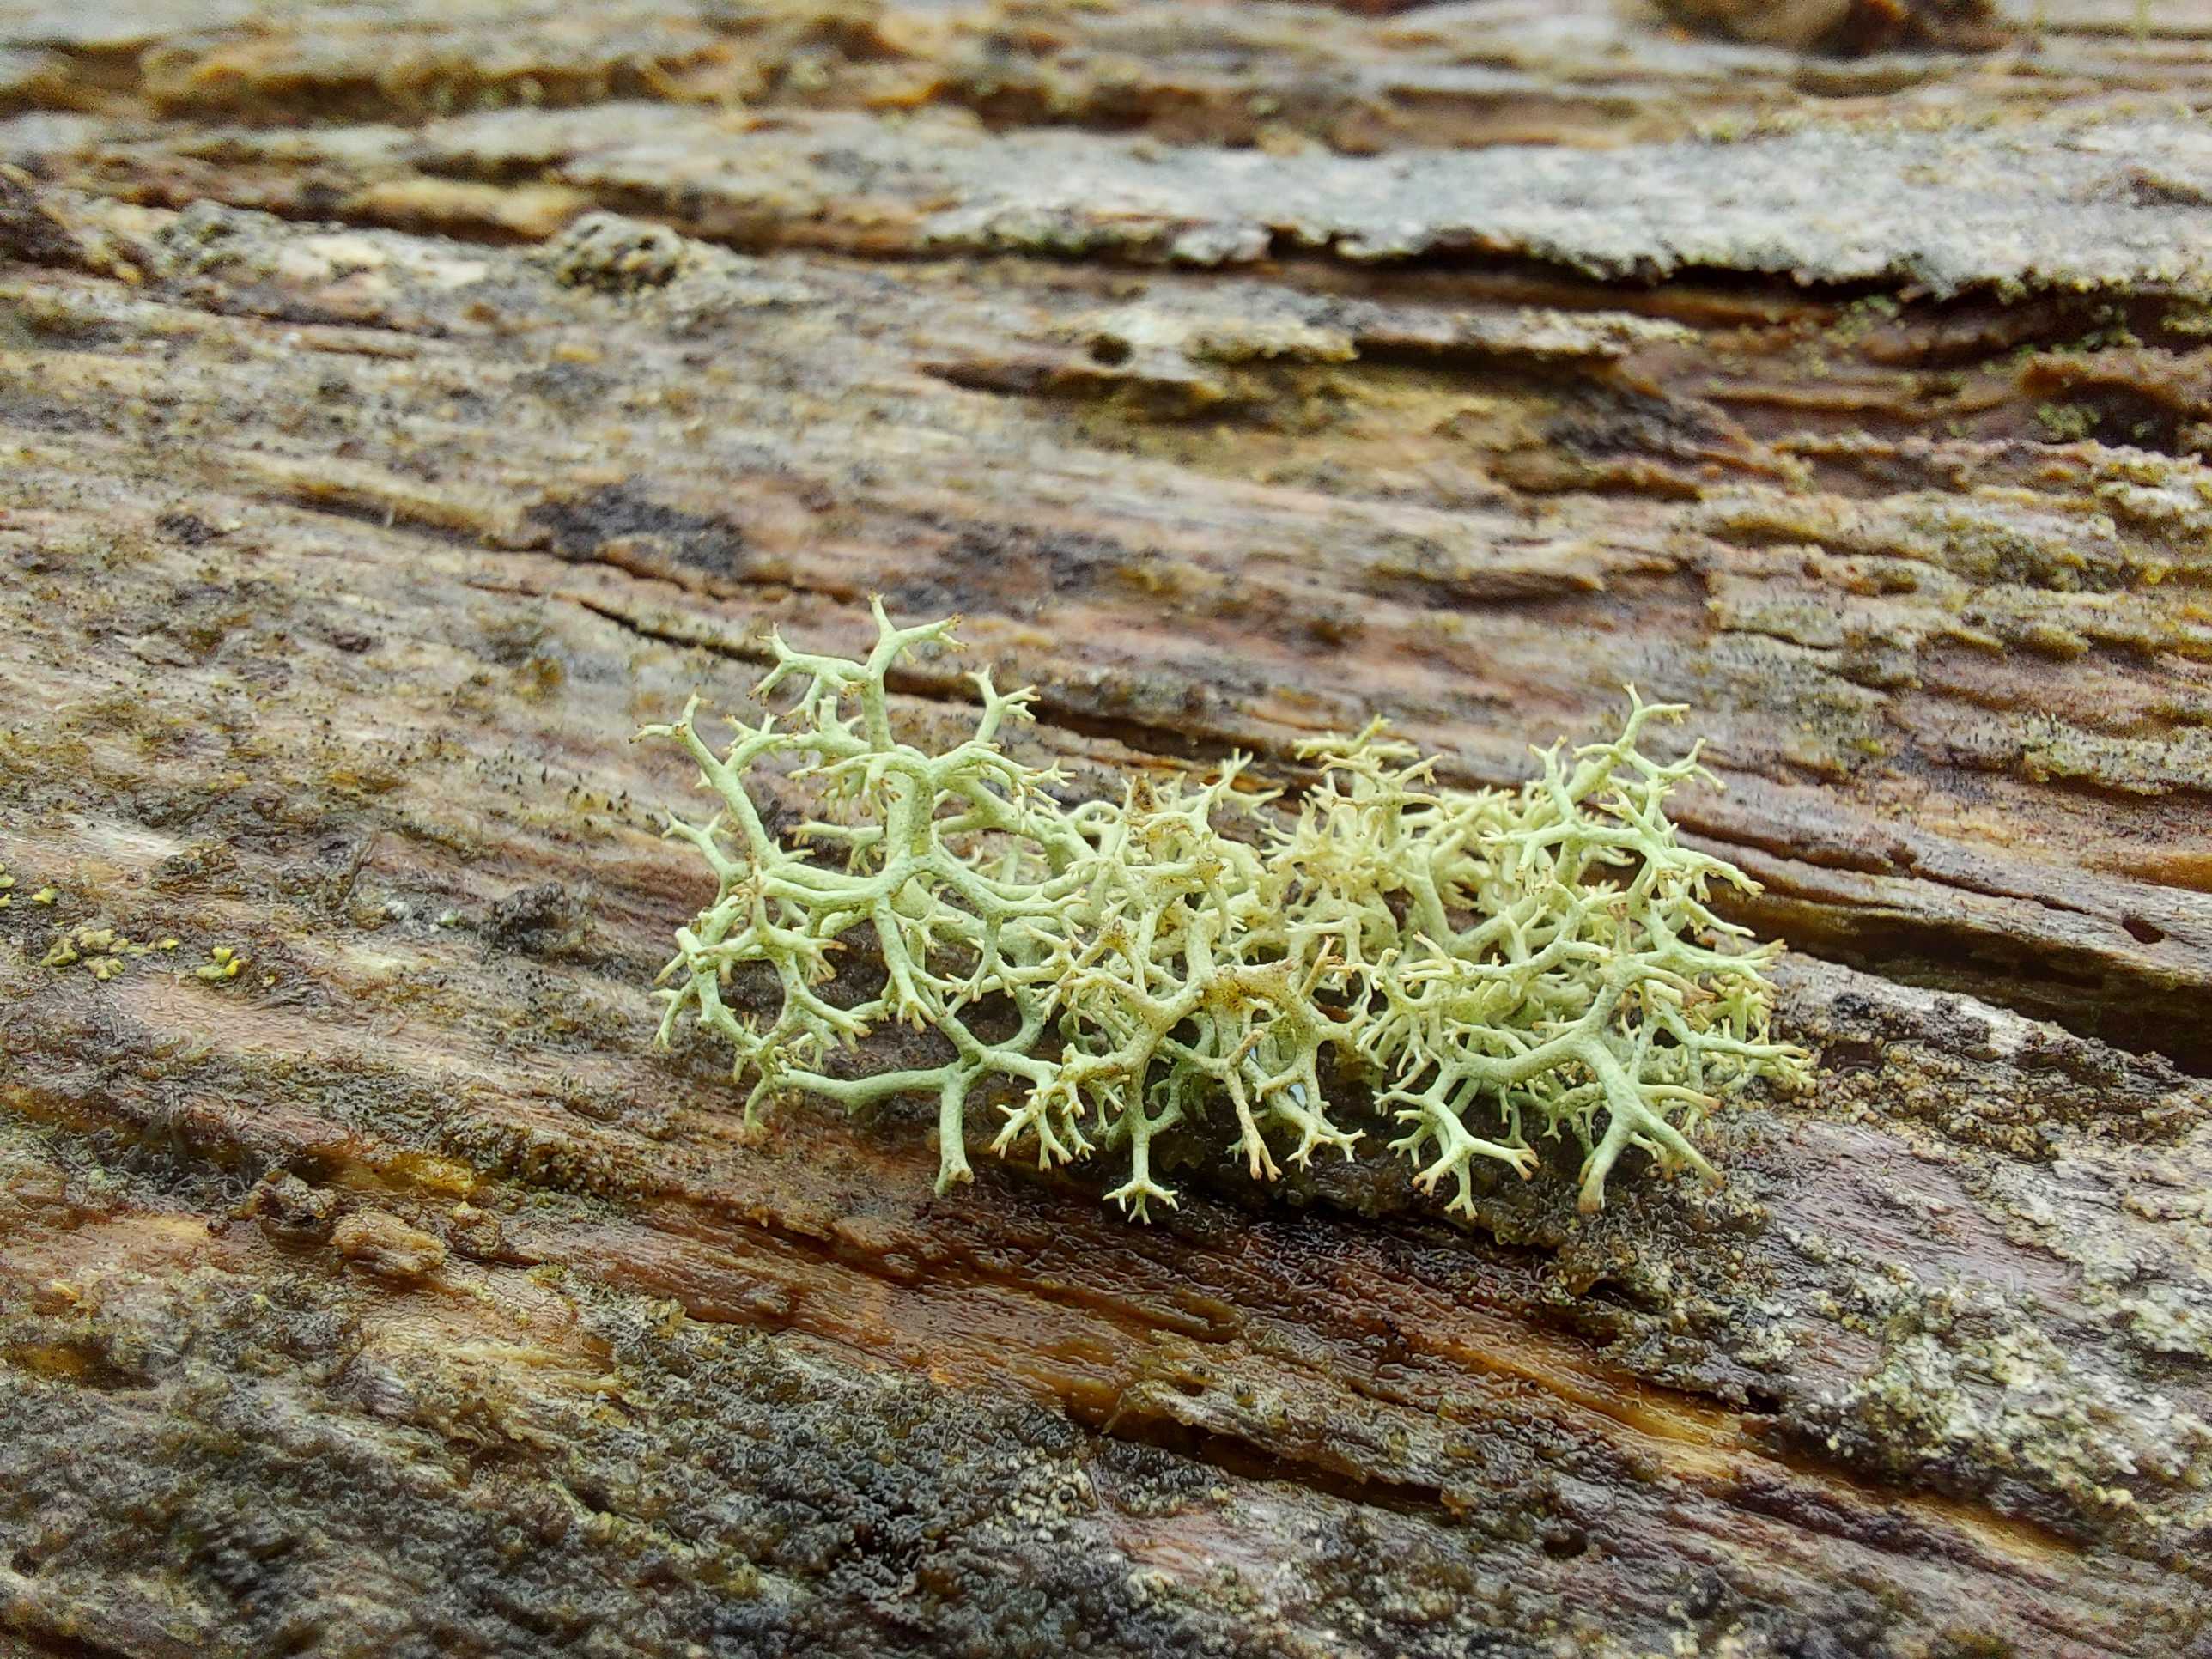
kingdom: Fungi
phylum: Ascomycota
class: Lecanoromycetes
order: Lecanorales
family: Cladoniaceae
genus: Cladonia
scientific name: Cladonia portentosa
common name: hede-rensdyrlav
